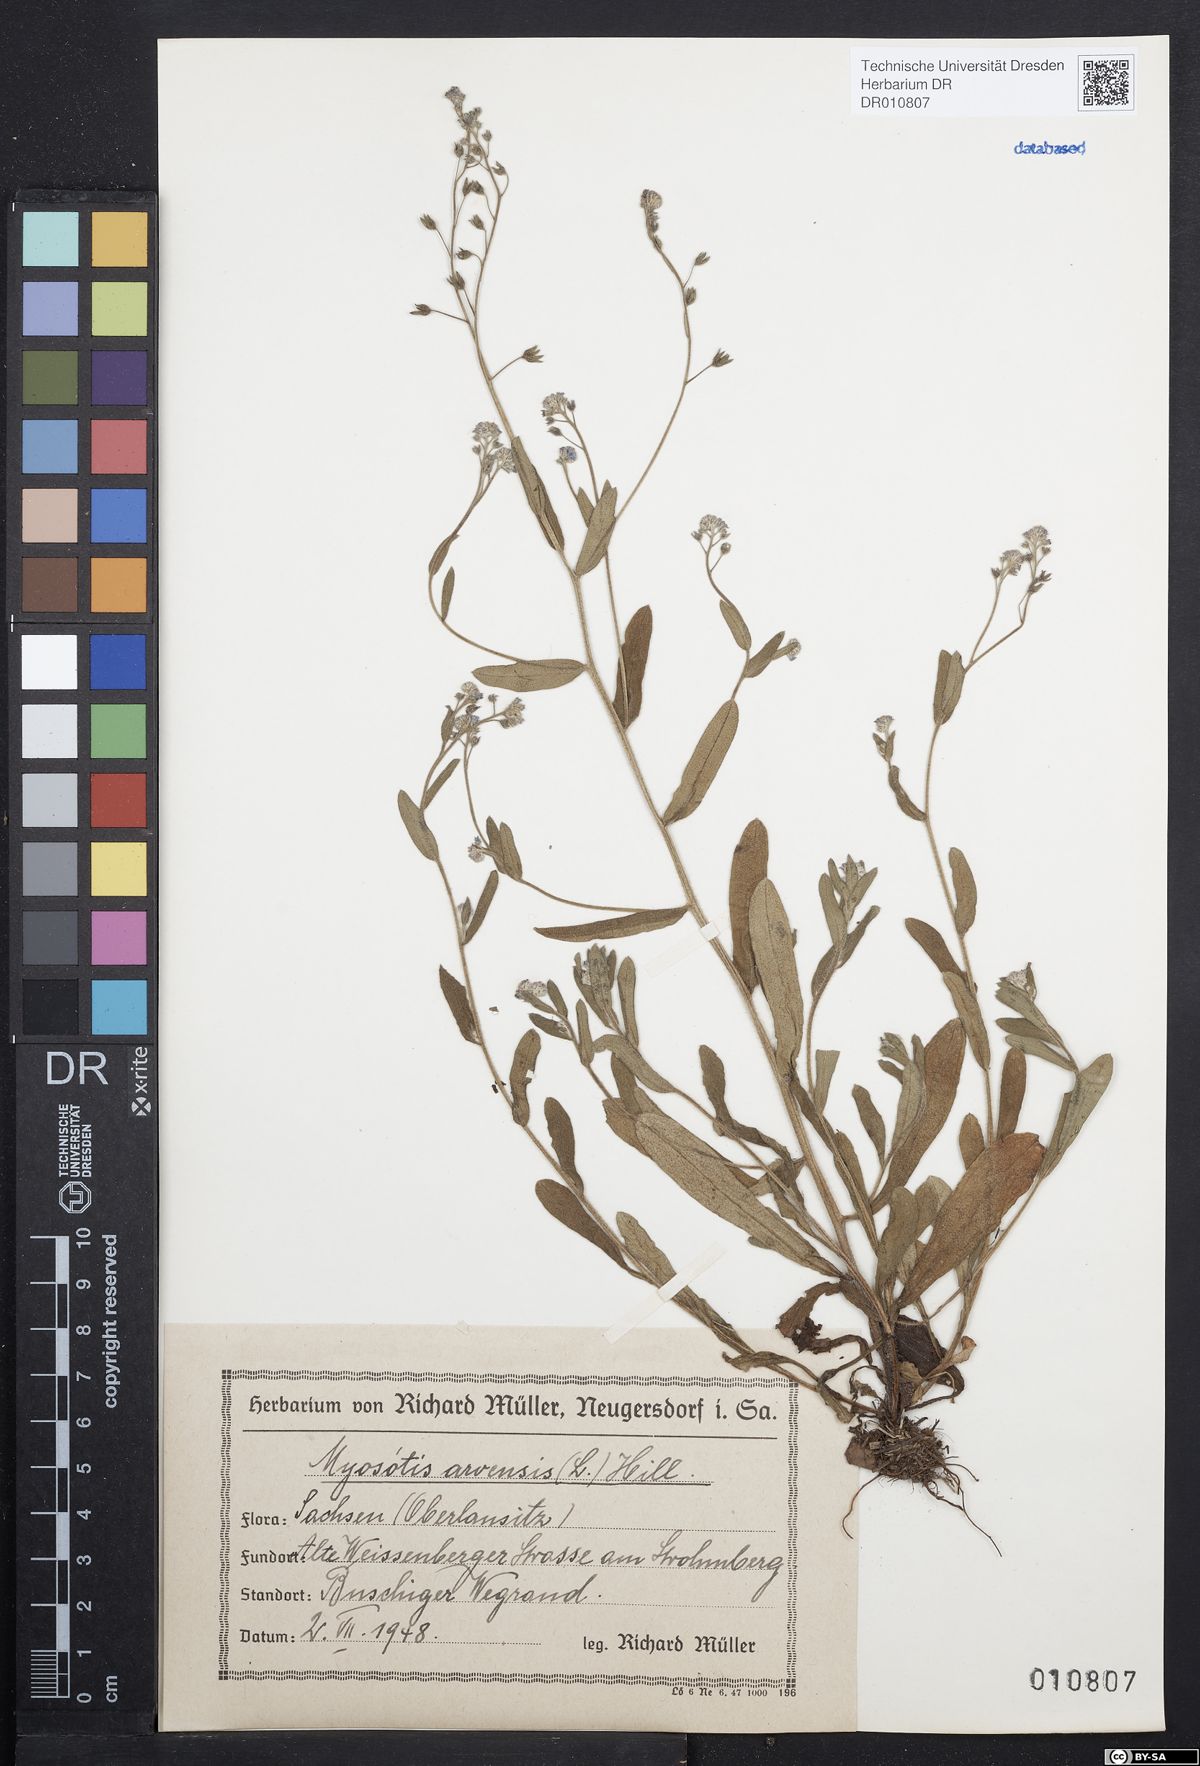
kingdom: Plantae
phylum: Tracheophyta
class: Magnoliopsida
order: Boraginales
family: Boraginaceae
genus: Myosotis
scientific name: Myosotis arvensis
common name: Field forget-me-not
